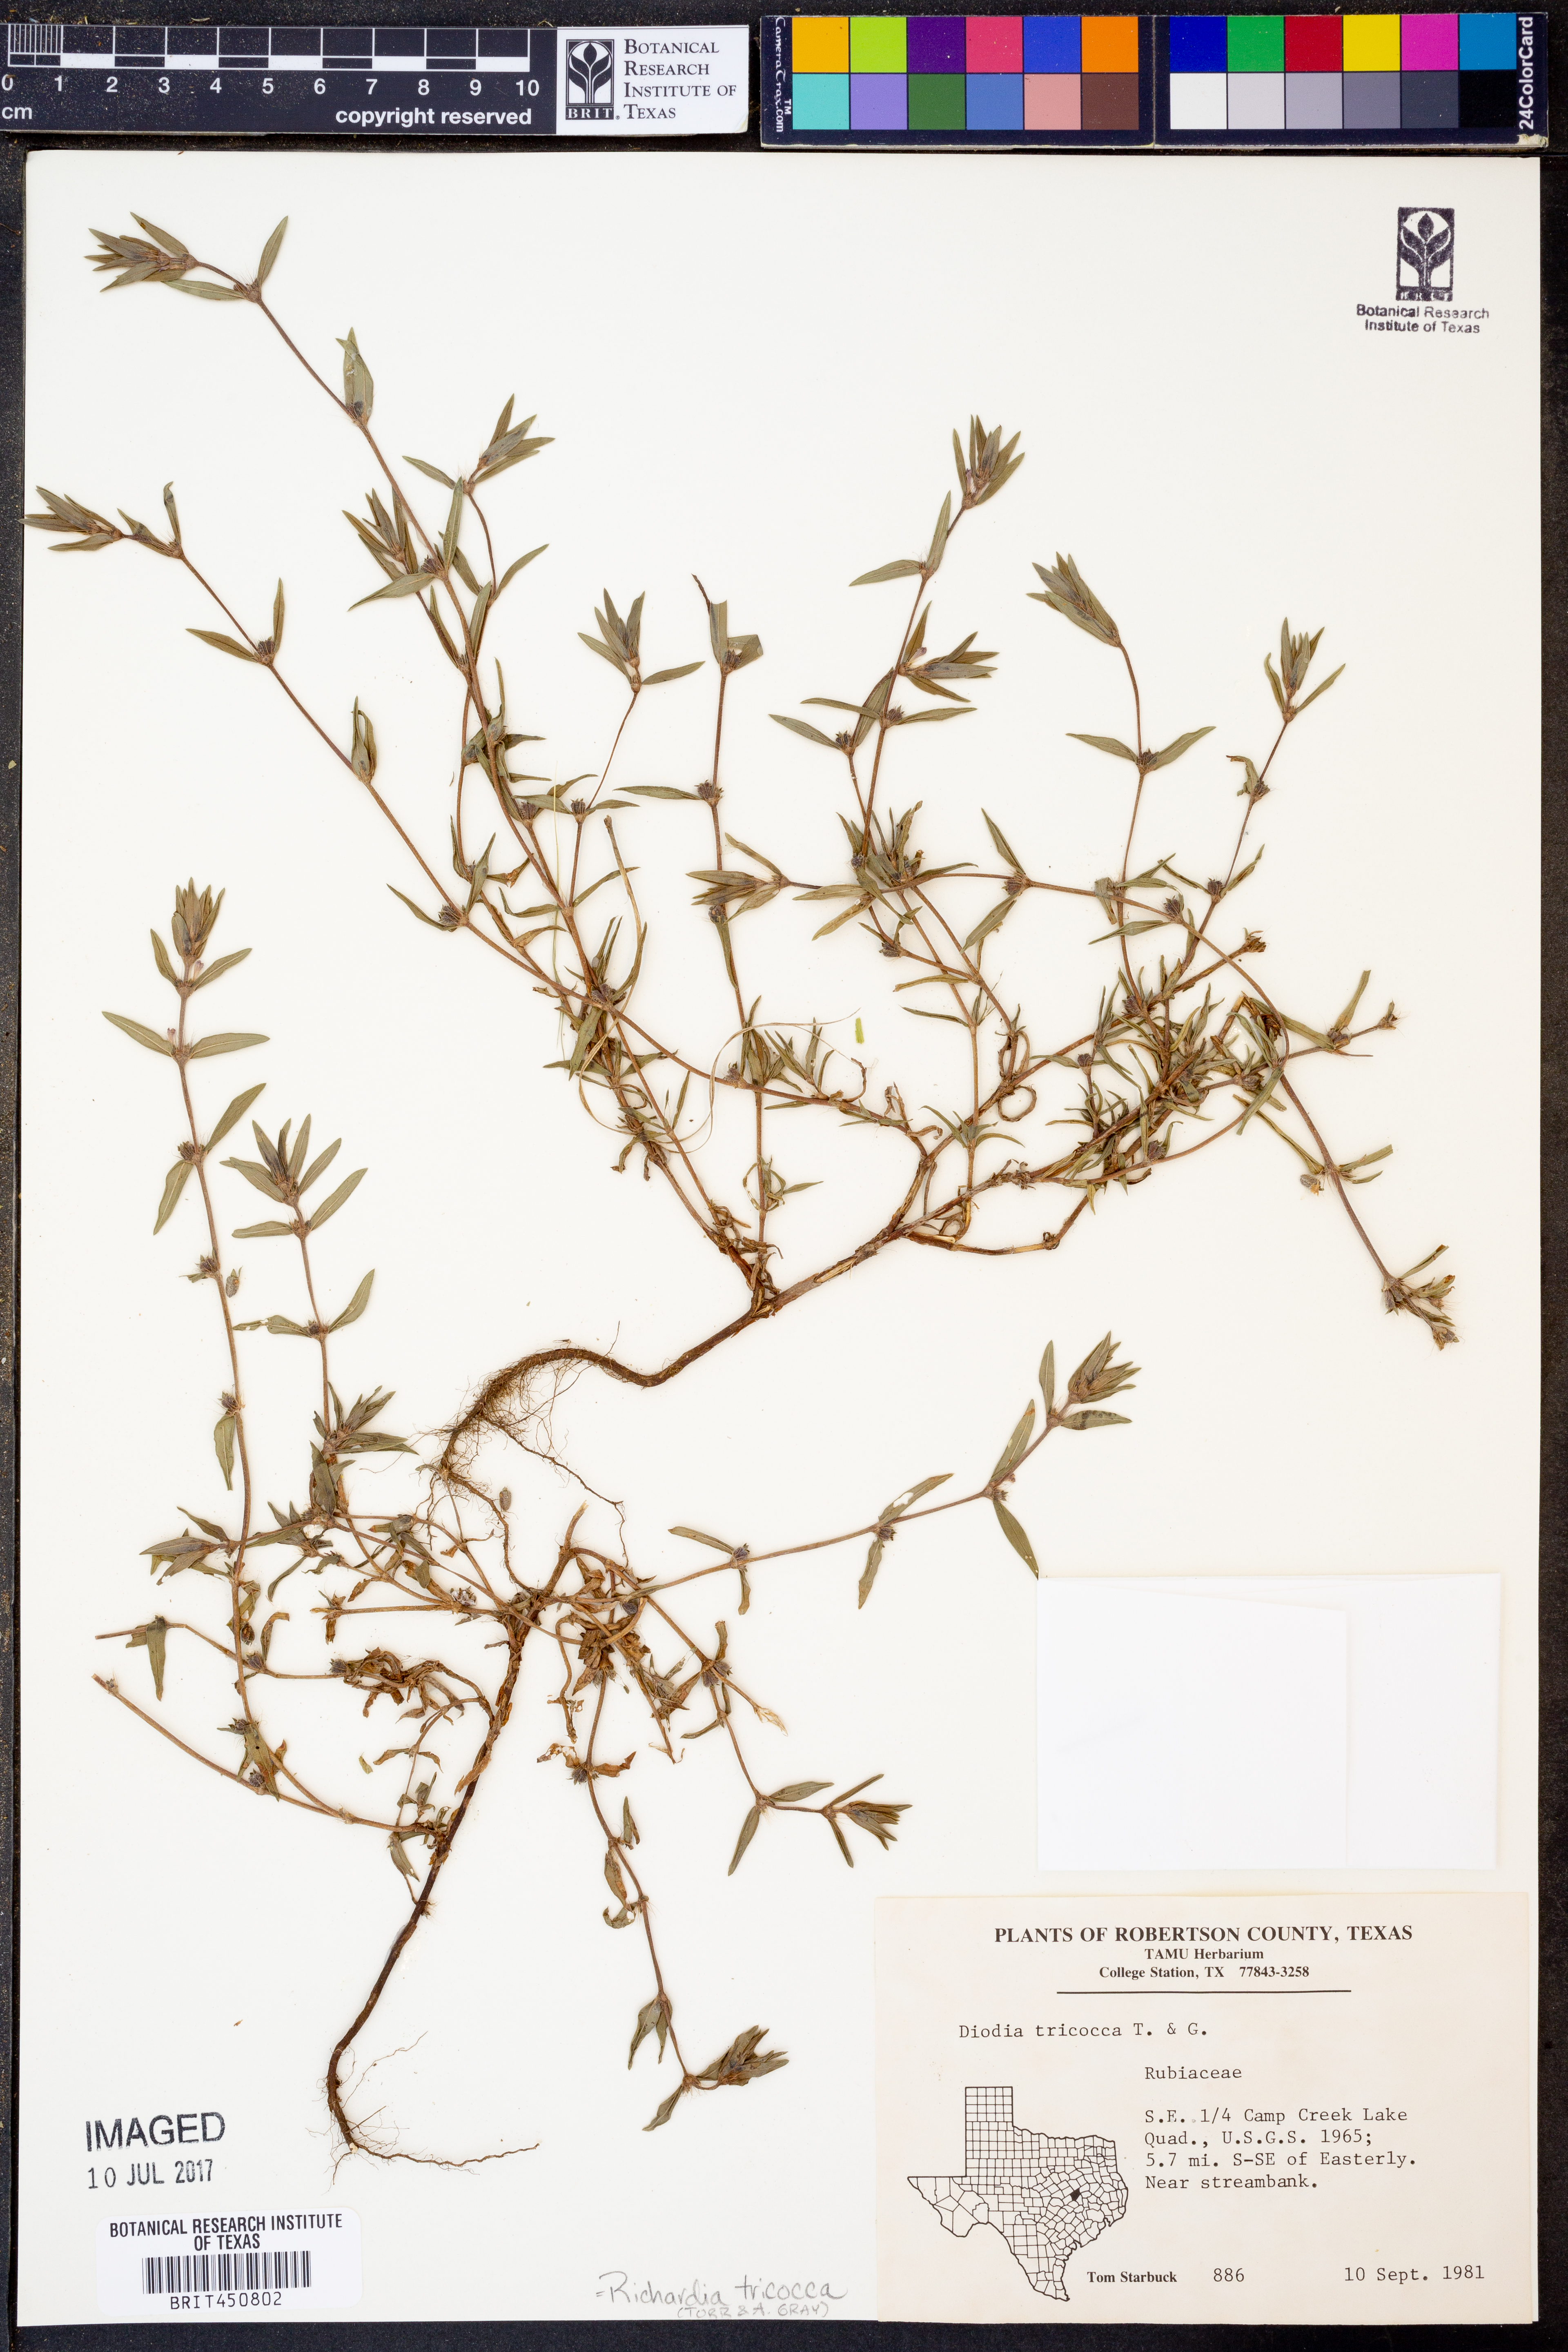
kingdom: Plantae
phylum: Tracheophyta
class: Magnoliopsida
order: Gentianales
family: Rubiaceae
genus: Richardia
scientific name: Richardia tricocca
